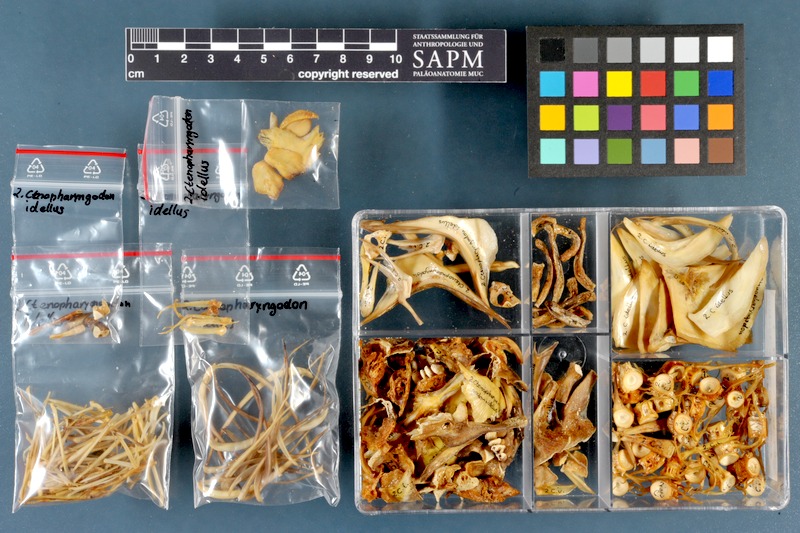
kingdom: Animalia
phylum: Chordata
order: Cypriniformes
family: Cyprinidae
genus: Ctenopharyngodon
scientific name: Ctenopharyngodon idella
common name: Grass carp
